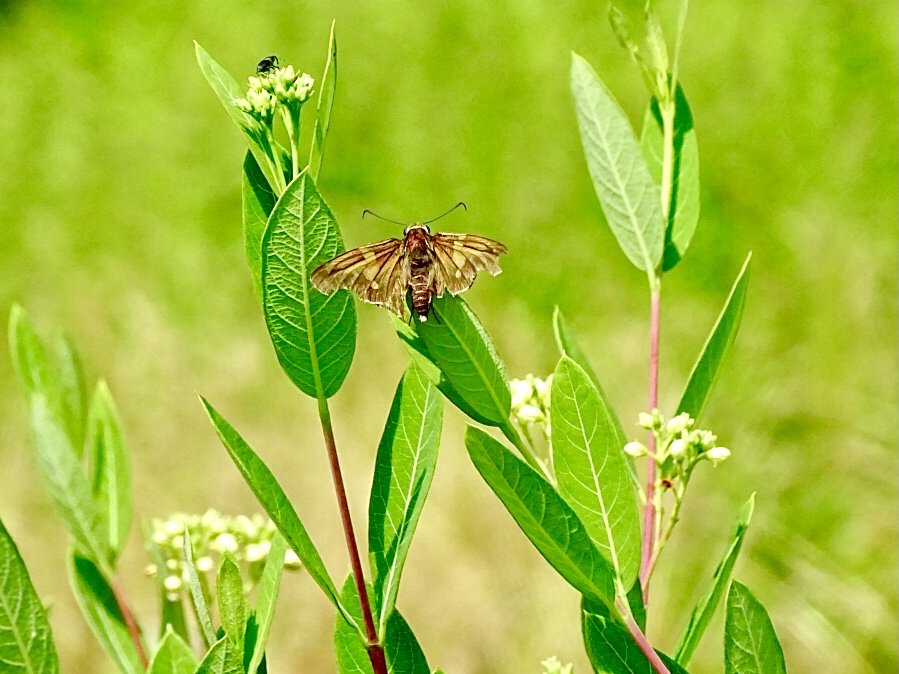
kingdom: Animalia
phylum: Arthropoda
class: Insecta
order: Lepidoptera
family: Hesperiidae
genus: Epargyreus
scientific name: Epargyreus clarus
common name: Silver-spotted Skipper
